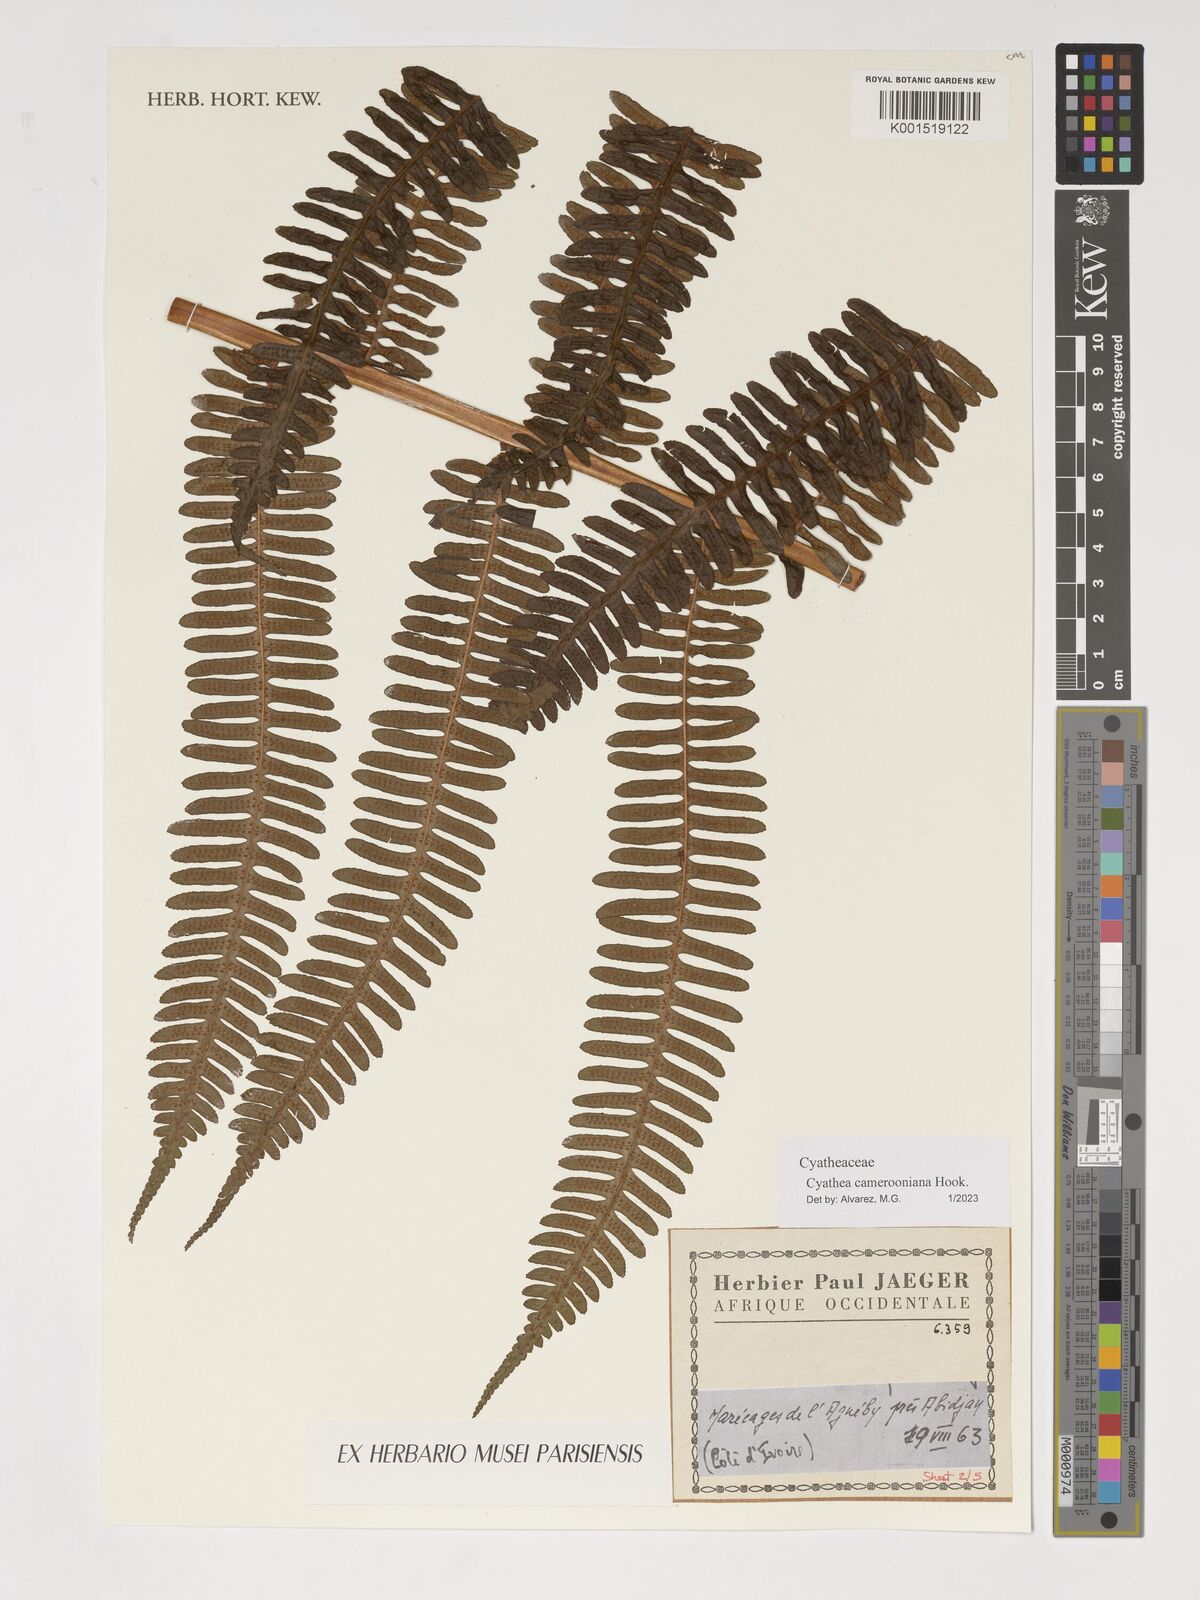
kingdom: Plantae
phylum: Tracheophyta
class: Polypodiopsida
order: Cyatheales
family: Cyatheaceae
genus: Alsophila
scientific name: Alsophila camerooniana
